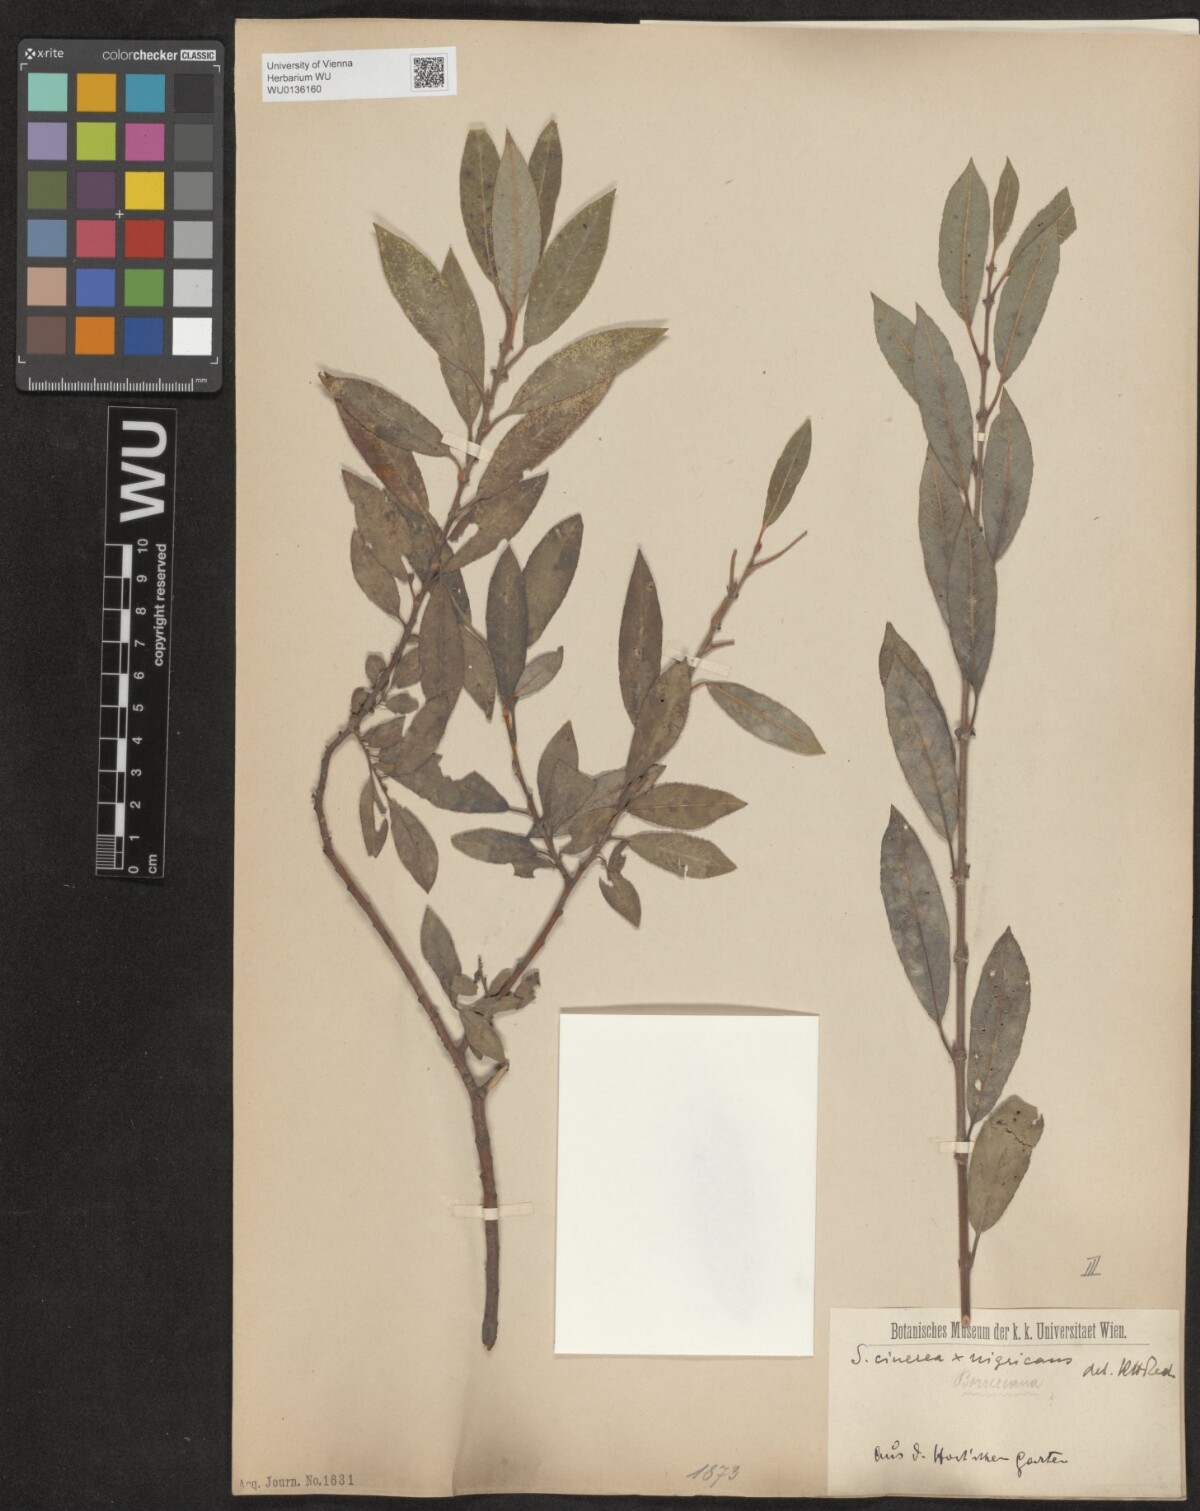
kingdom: Plantae
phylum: Tracheophyta
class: Magnoliopsida
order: Malpighiales
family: Salicaceae
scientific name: Salicaceae
